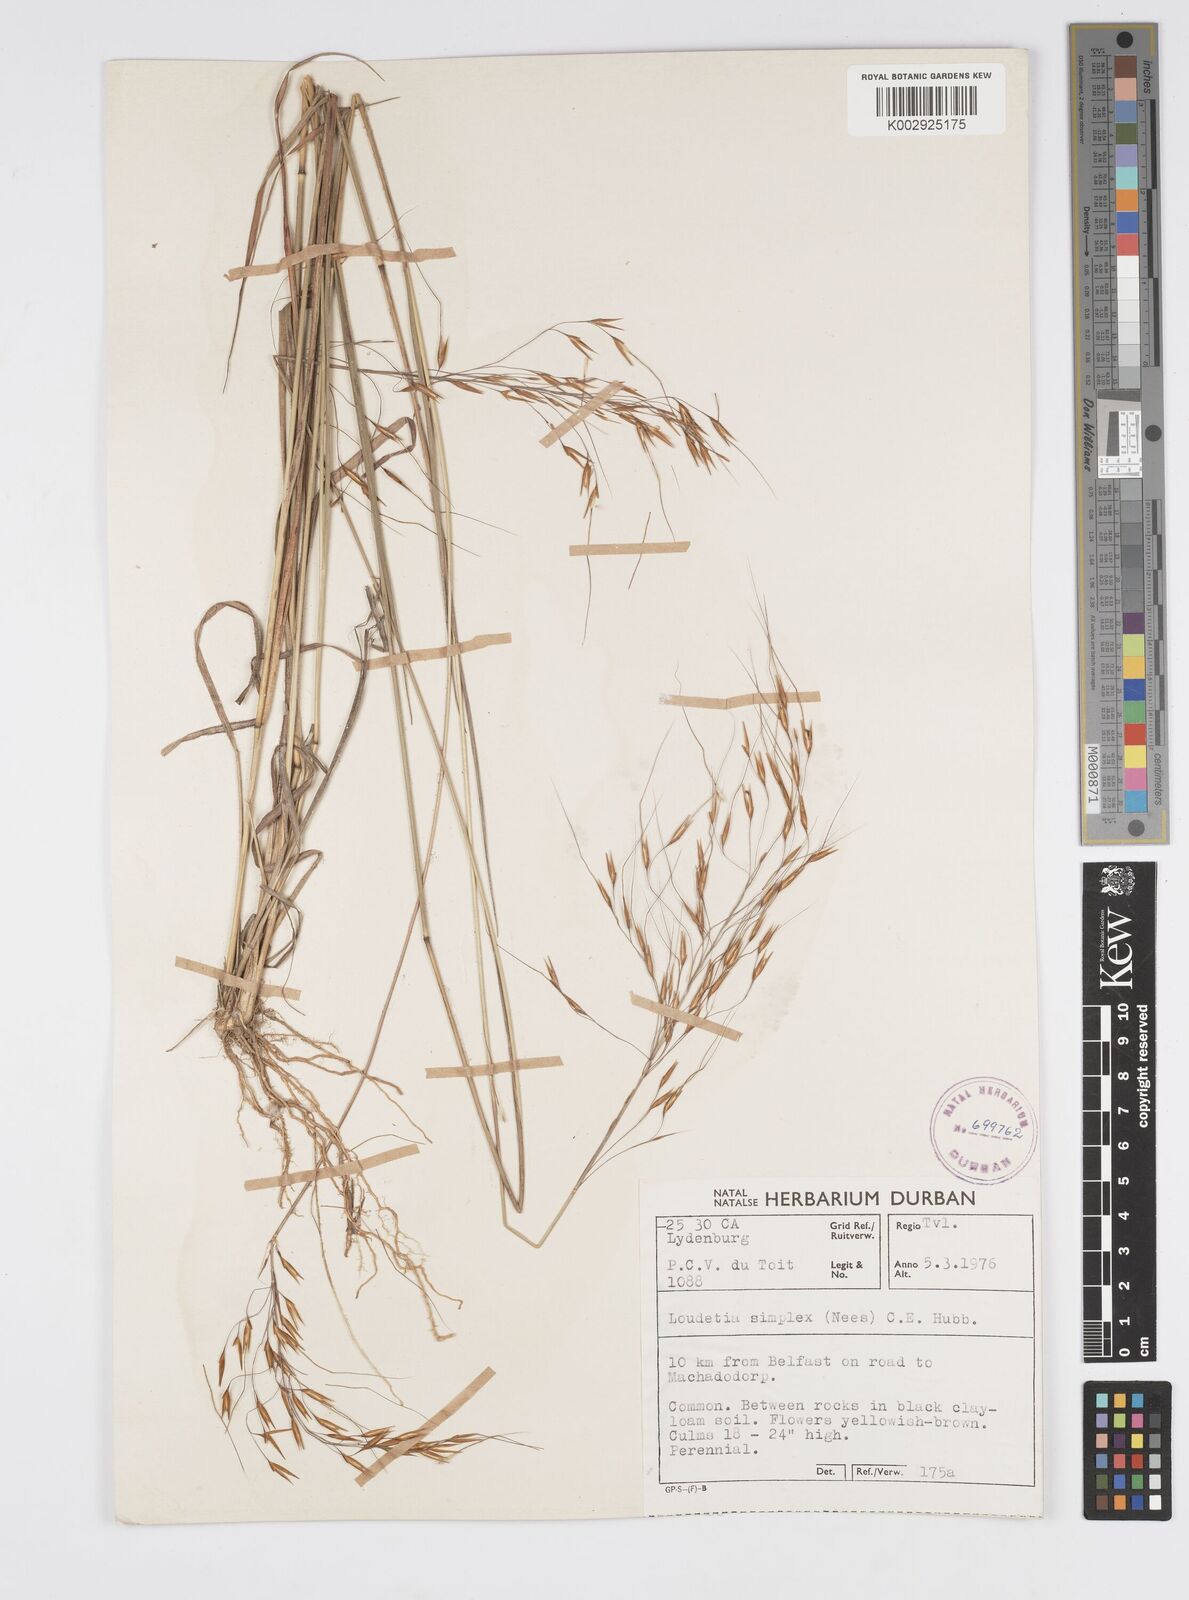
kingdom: Plantae
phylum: Tracheophyta
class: Liliopsida
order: Poales
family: Poaceae
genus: Loudetia
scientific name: Loudetia simplex
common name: Common russet grass
